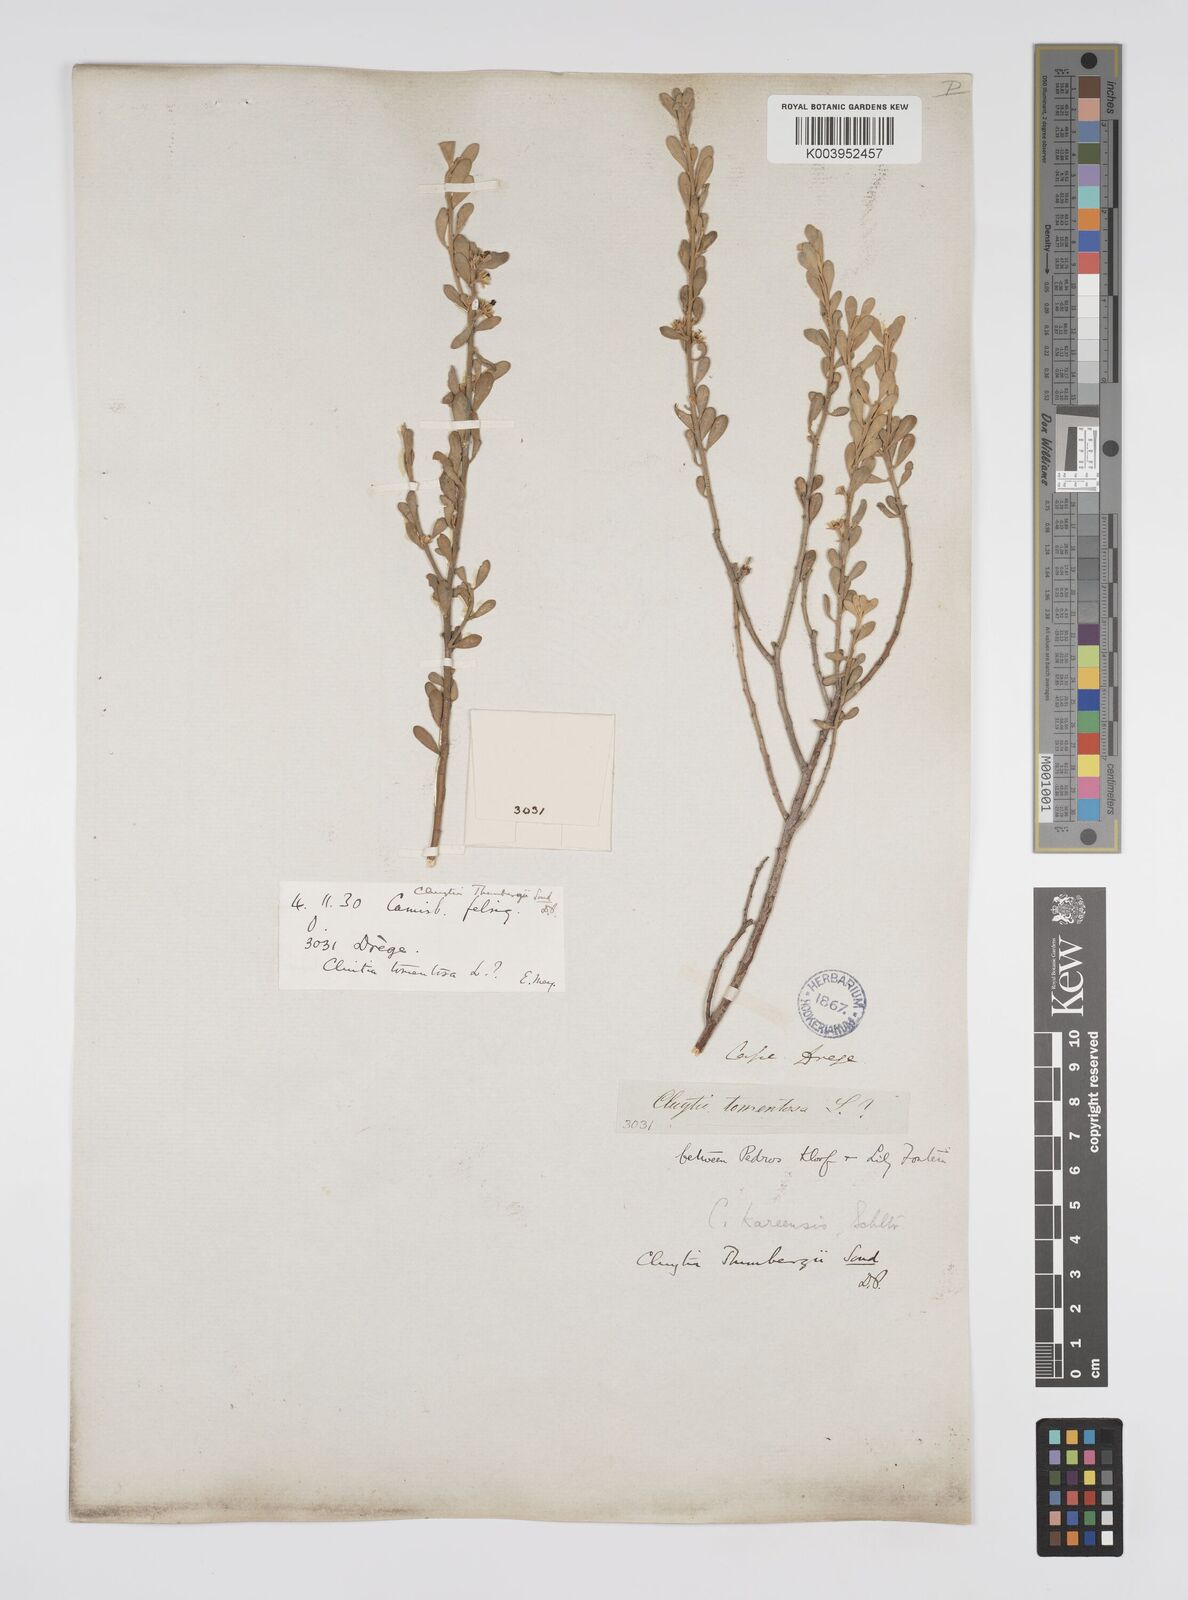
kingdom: Plantae
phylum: Tracheophyta
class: Magnoliopsida
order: Malpighiales
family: Peraceae
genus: Clutia
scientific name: Clutia thunbergii
